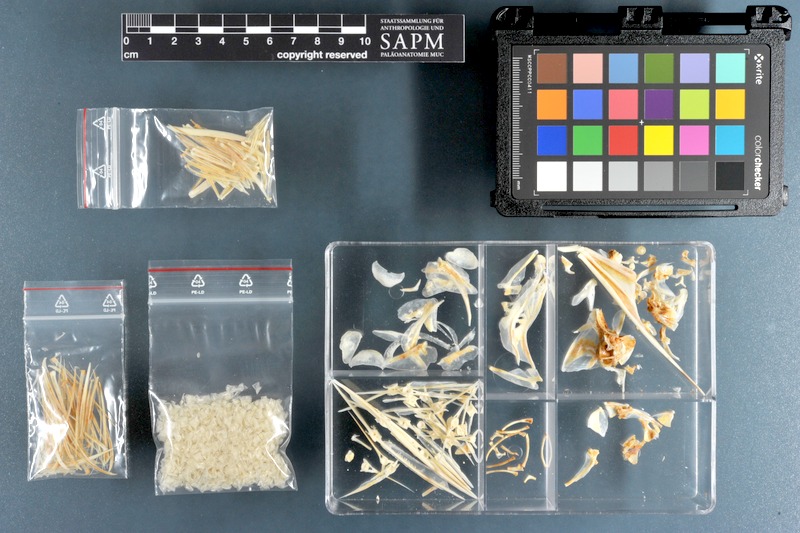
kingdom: Animalia
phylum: Chordata
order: Perciformes
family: Monodactylidae
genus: Monodactylus
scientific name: Monodactylus sebae
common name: African moony
